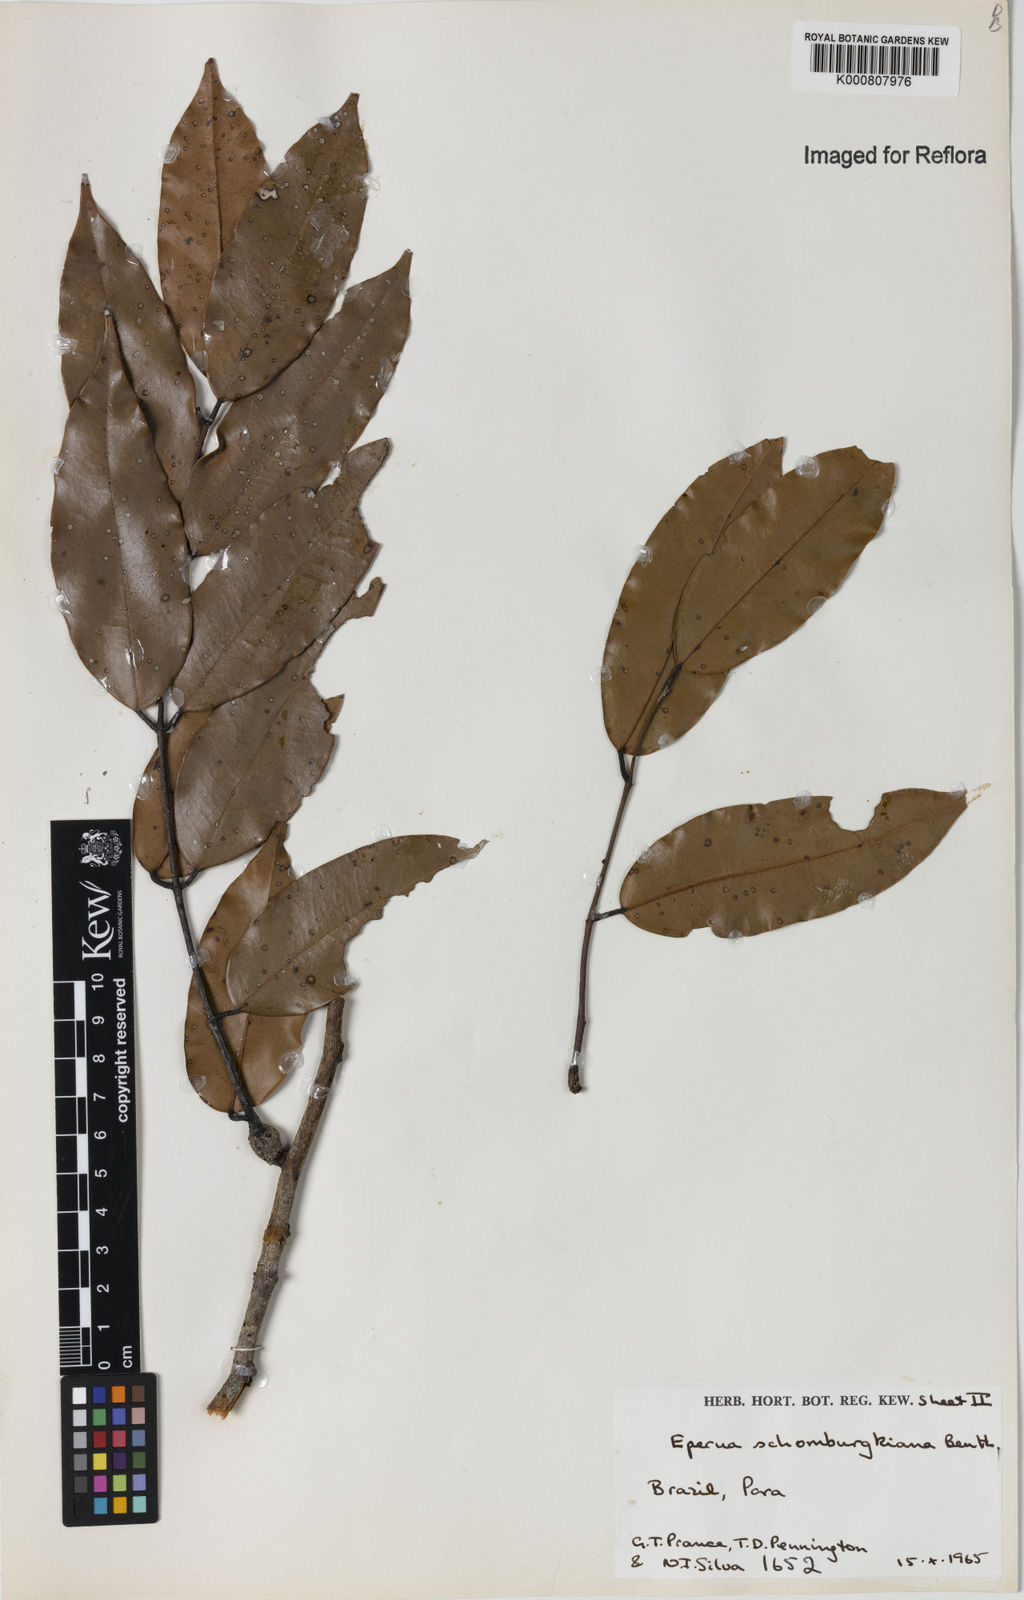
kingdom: Plantae
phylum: Tracheophyta
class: Magnoliopsida
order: Fabales
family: Fabaceae
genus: Eperua
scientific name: Eperua schomburgkiana
